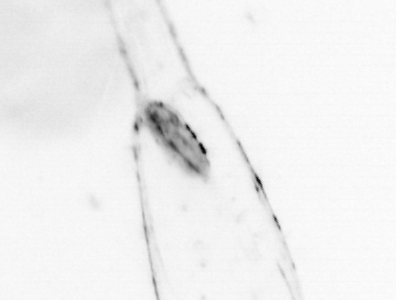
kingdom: Chromista
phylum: Ochrophyta
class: Bacillariophyceae
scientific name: Bacillariophyceae
